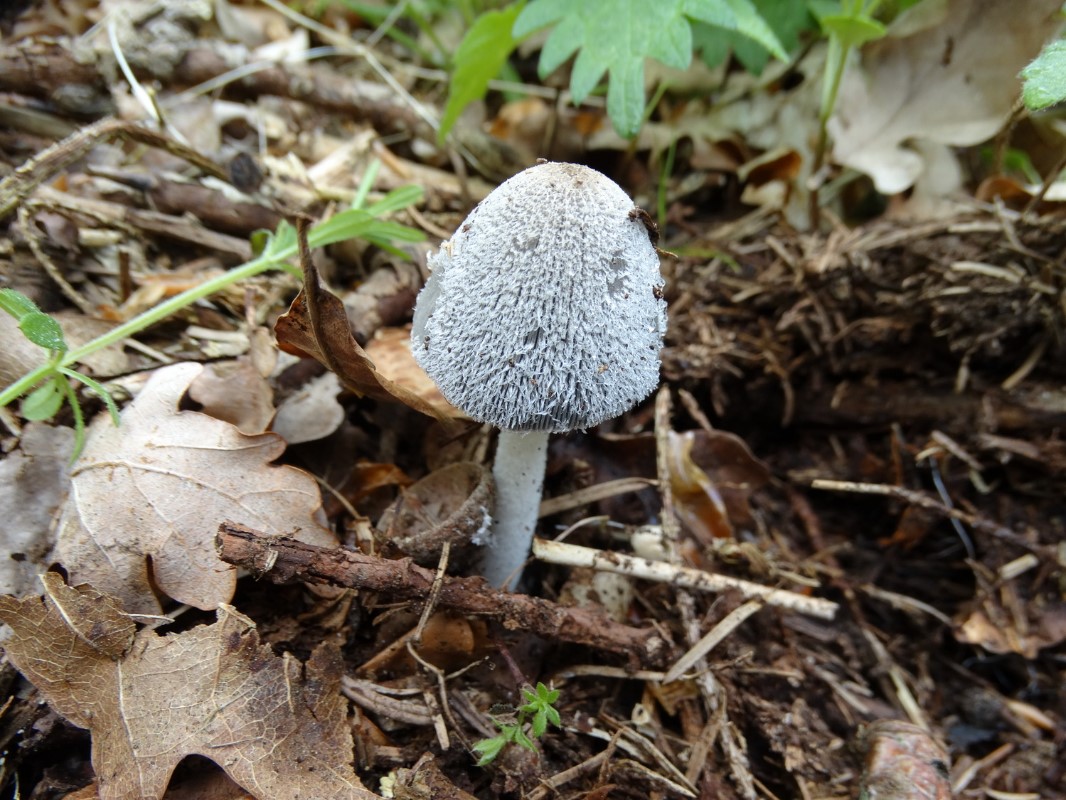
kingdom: Fungi
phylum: Basidiomycota
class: Agaricomycetes
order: Agaricales
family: Psathyrellaceae
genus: Coprinopsis
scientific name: Coprinopsis lagopus
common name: dunstokket blækhat
